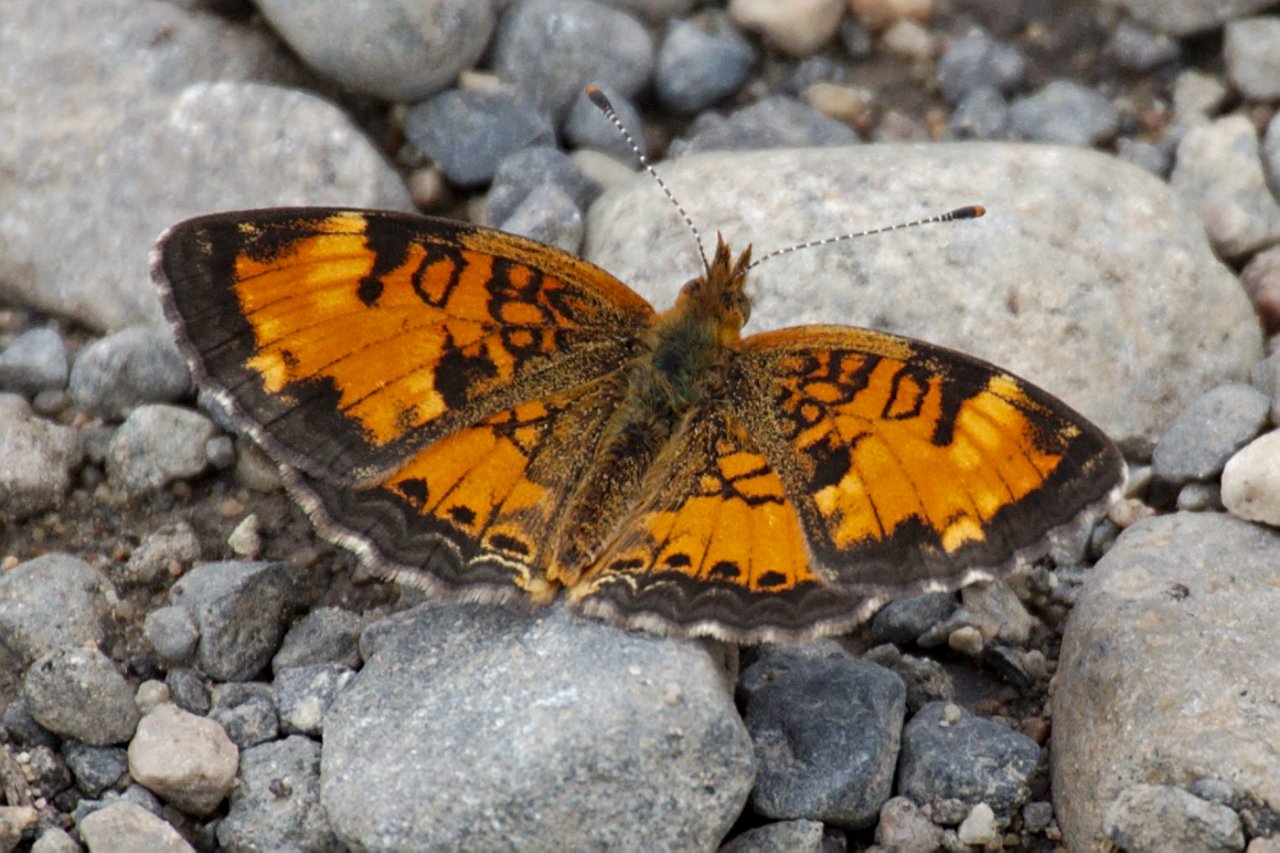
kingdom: Animalia
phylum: Arthropoda
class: Insecta
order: Lepidoptera
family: Nymphalidae
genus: Phyciodes
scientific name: Phyciodes tharos
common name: Northern Crescent
